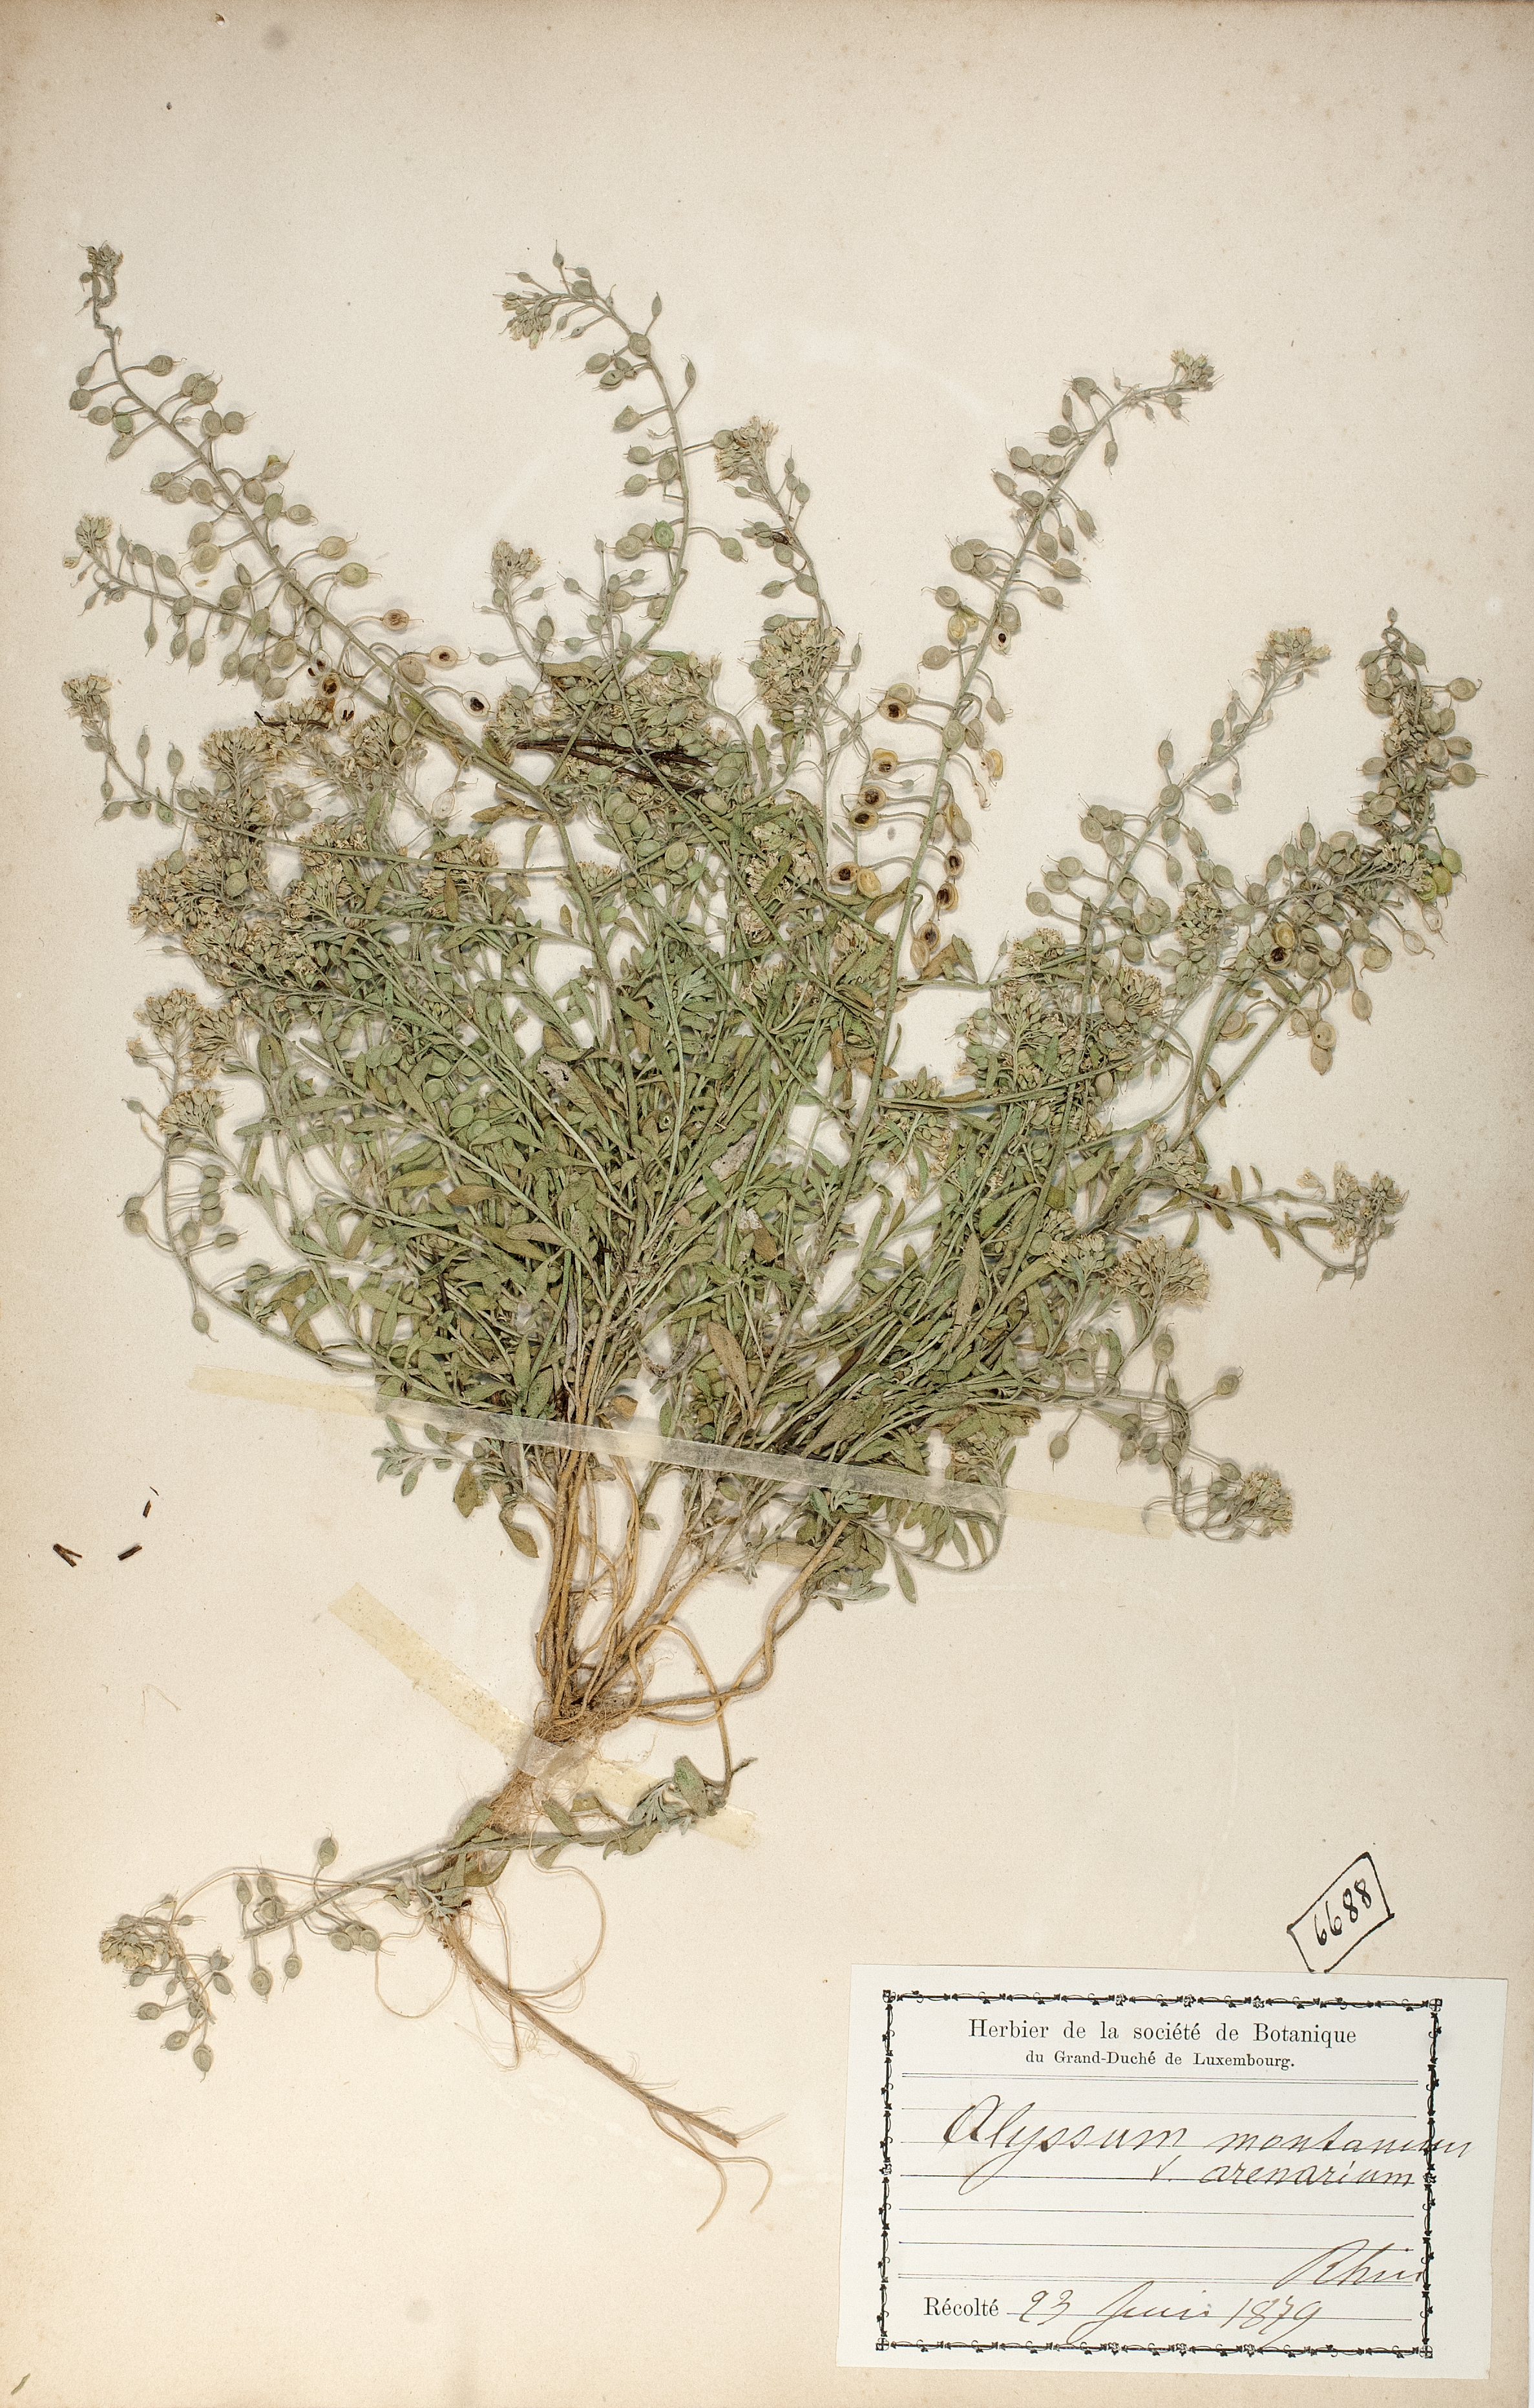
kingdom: Plantae
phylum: Tracheophyta
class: Magnoliopsida
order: Brassicales
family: Brassicaceae
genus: Alyssum
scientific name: Alyssum loiseleurii
